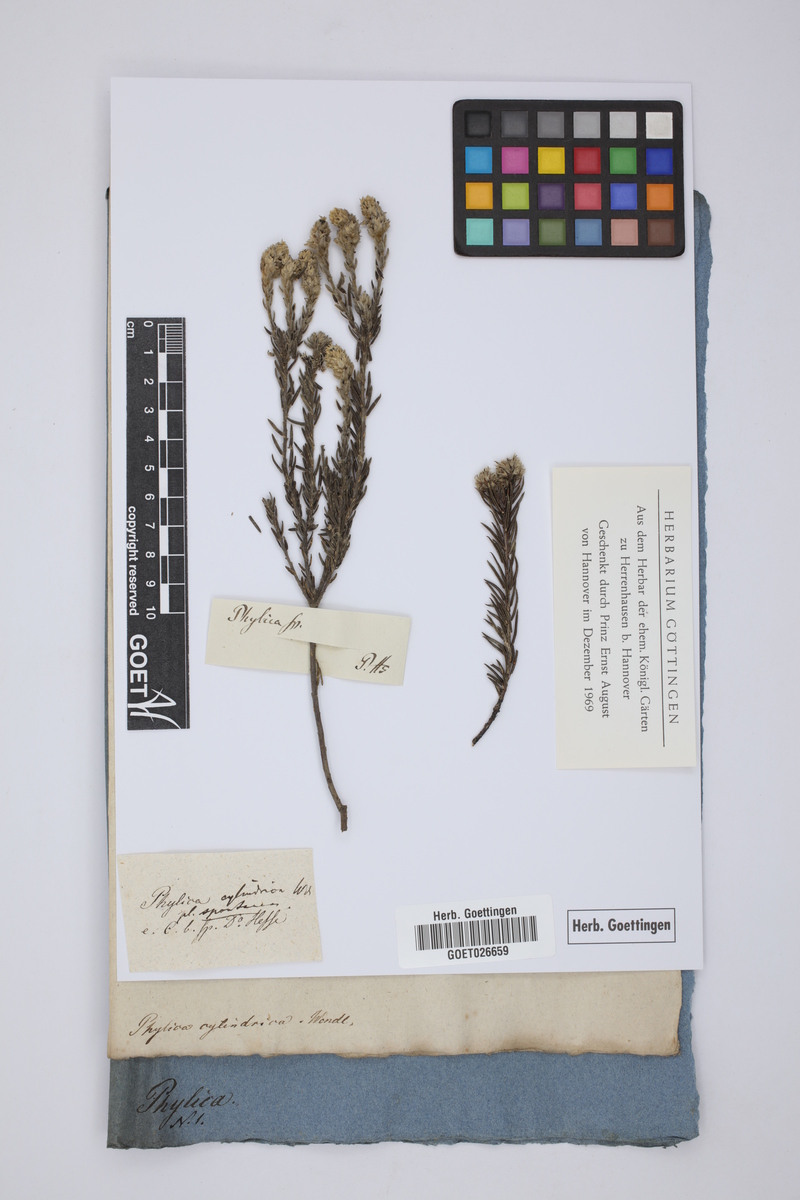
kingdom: Plantae
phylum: Tracheophyta
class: Magnoliopsida
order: Rosales
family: Rhamnaceae
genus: Phylica
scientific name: Phylica cylindrica
